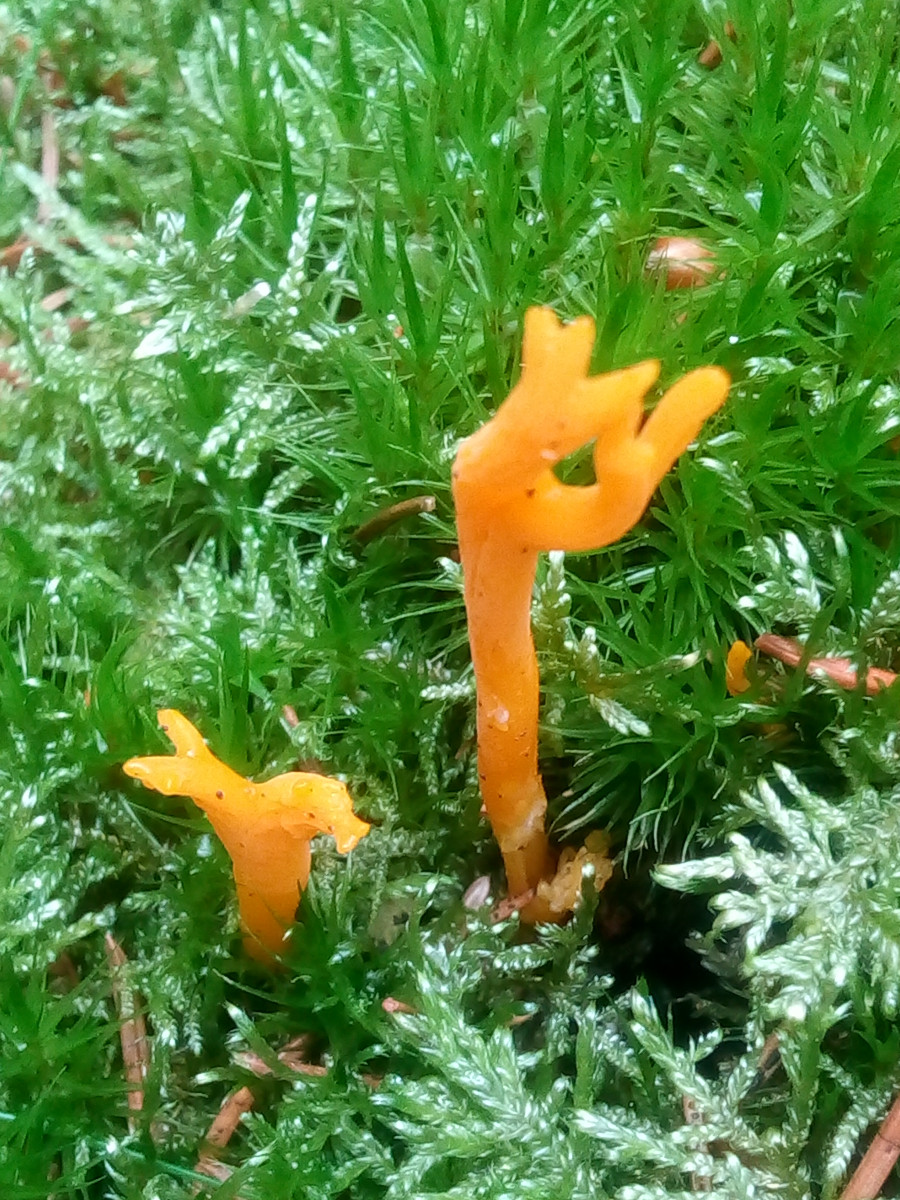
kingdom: Fungi
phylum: Basidiomycota
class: Dacrymycetes
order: Dacrymycetales
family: Dacrymycetaceae
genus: Calocera
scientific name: Calocera viscosa
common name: almindelig guldgaffel
